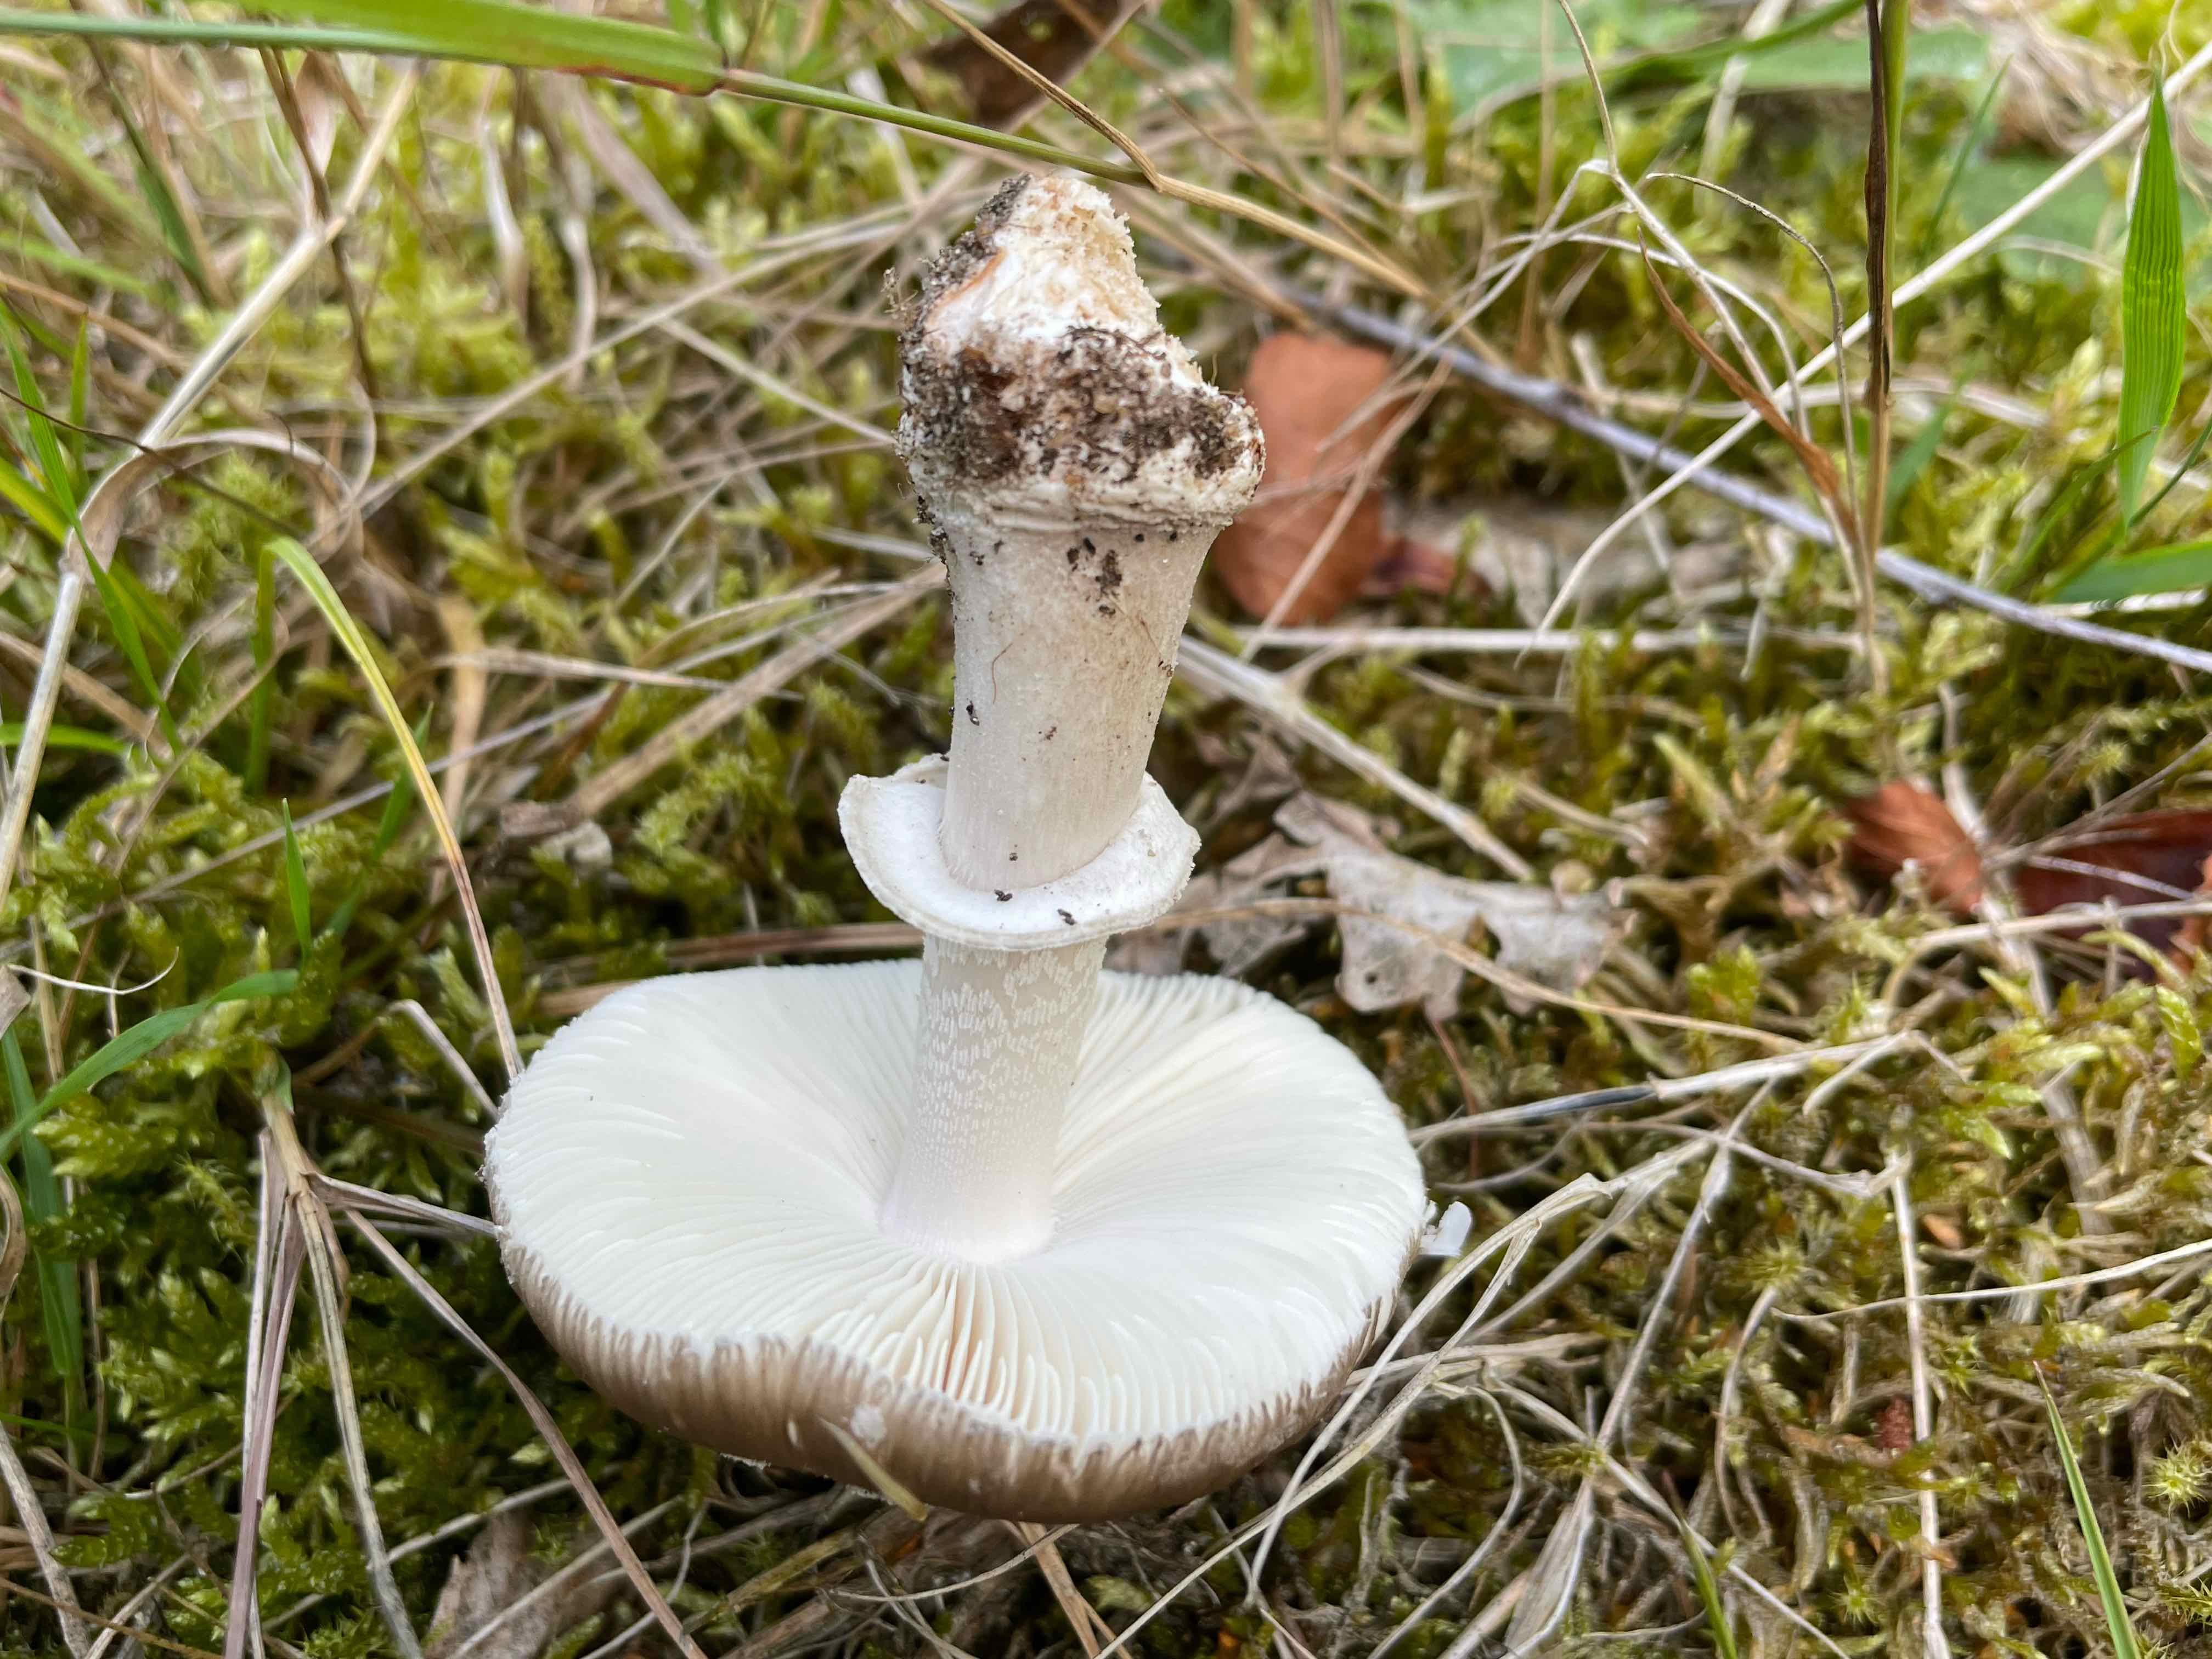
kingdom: Fungi
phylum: Basidiomycota
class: Agaricomycetes
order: Agaricales
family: Amanitaceae
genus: Amanita
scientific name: Amanita
